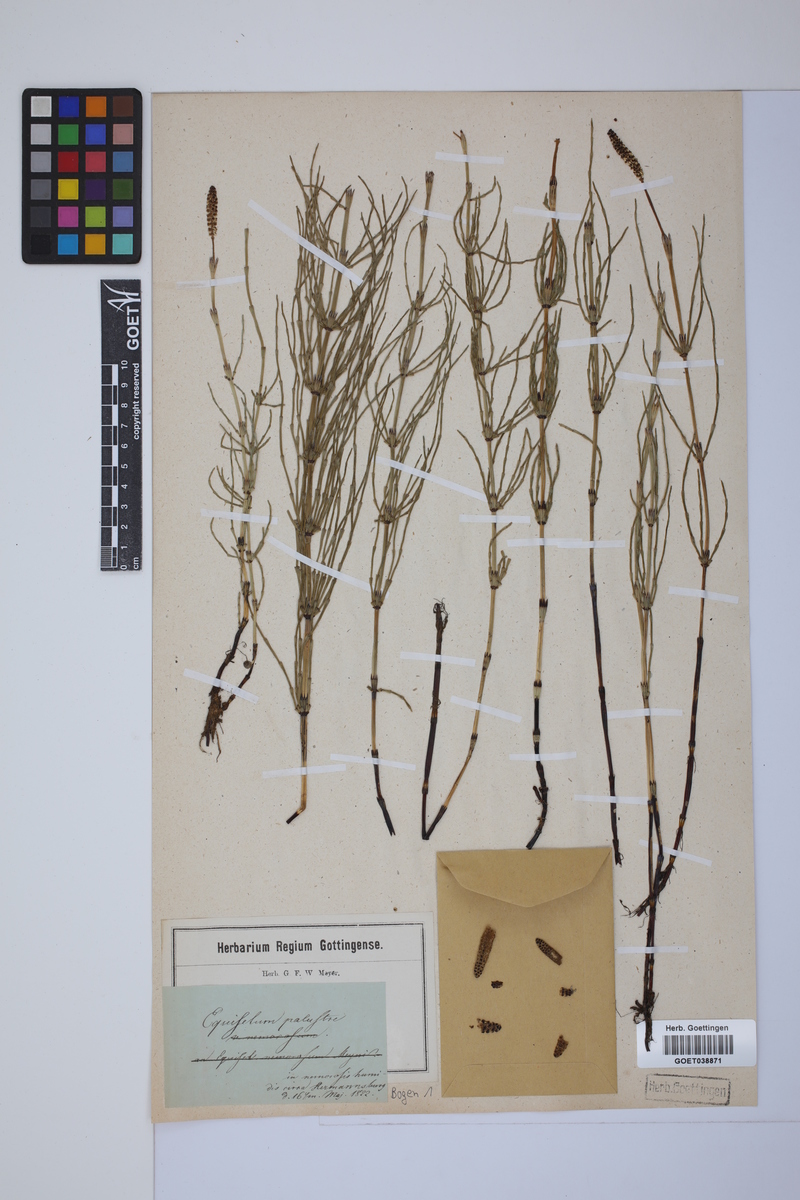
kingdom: Plantae
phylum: Tracheophyta
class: Polypodiopsida
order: Equisetales
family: Equisetaceae
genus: Equisetum
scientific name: Equisetum palustre
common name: Marsh horsetail
